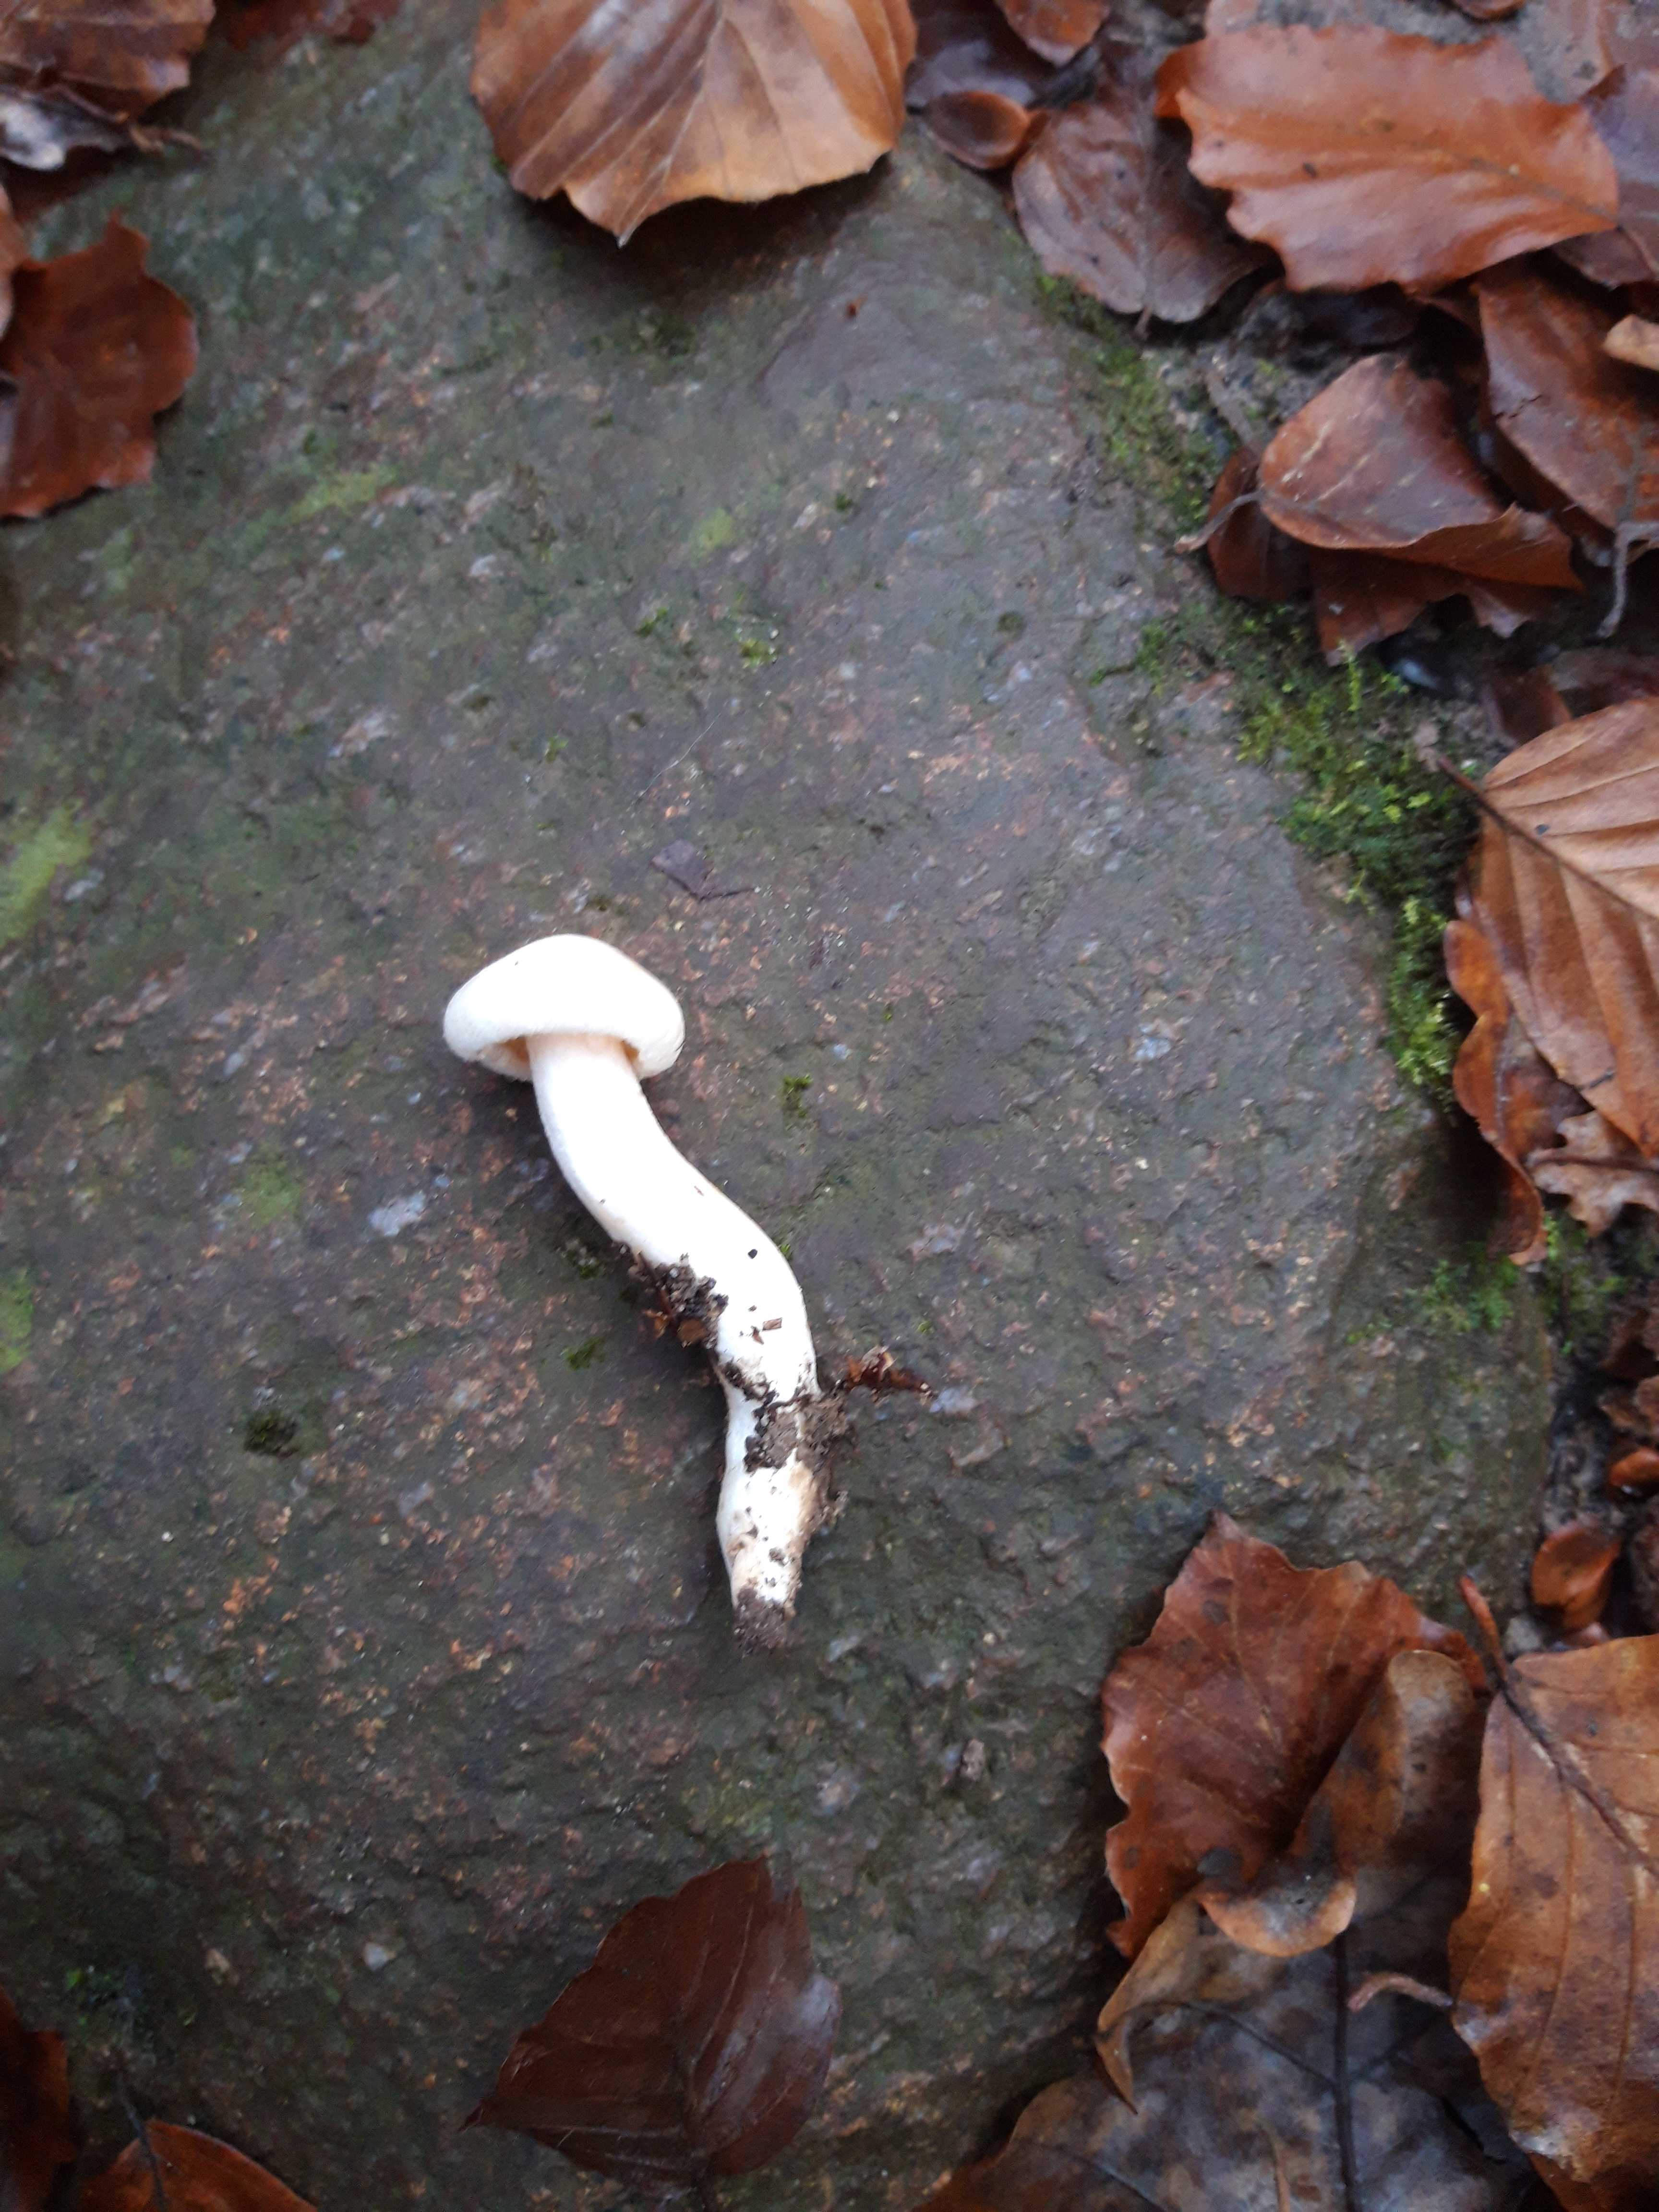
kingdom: Fungi
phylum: Basidiomycota
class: Agaricomycetes
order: Agaricales
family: Hygrophoraceae
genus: Hygrophorus
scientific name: Hygrophorus
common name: sneglehat
